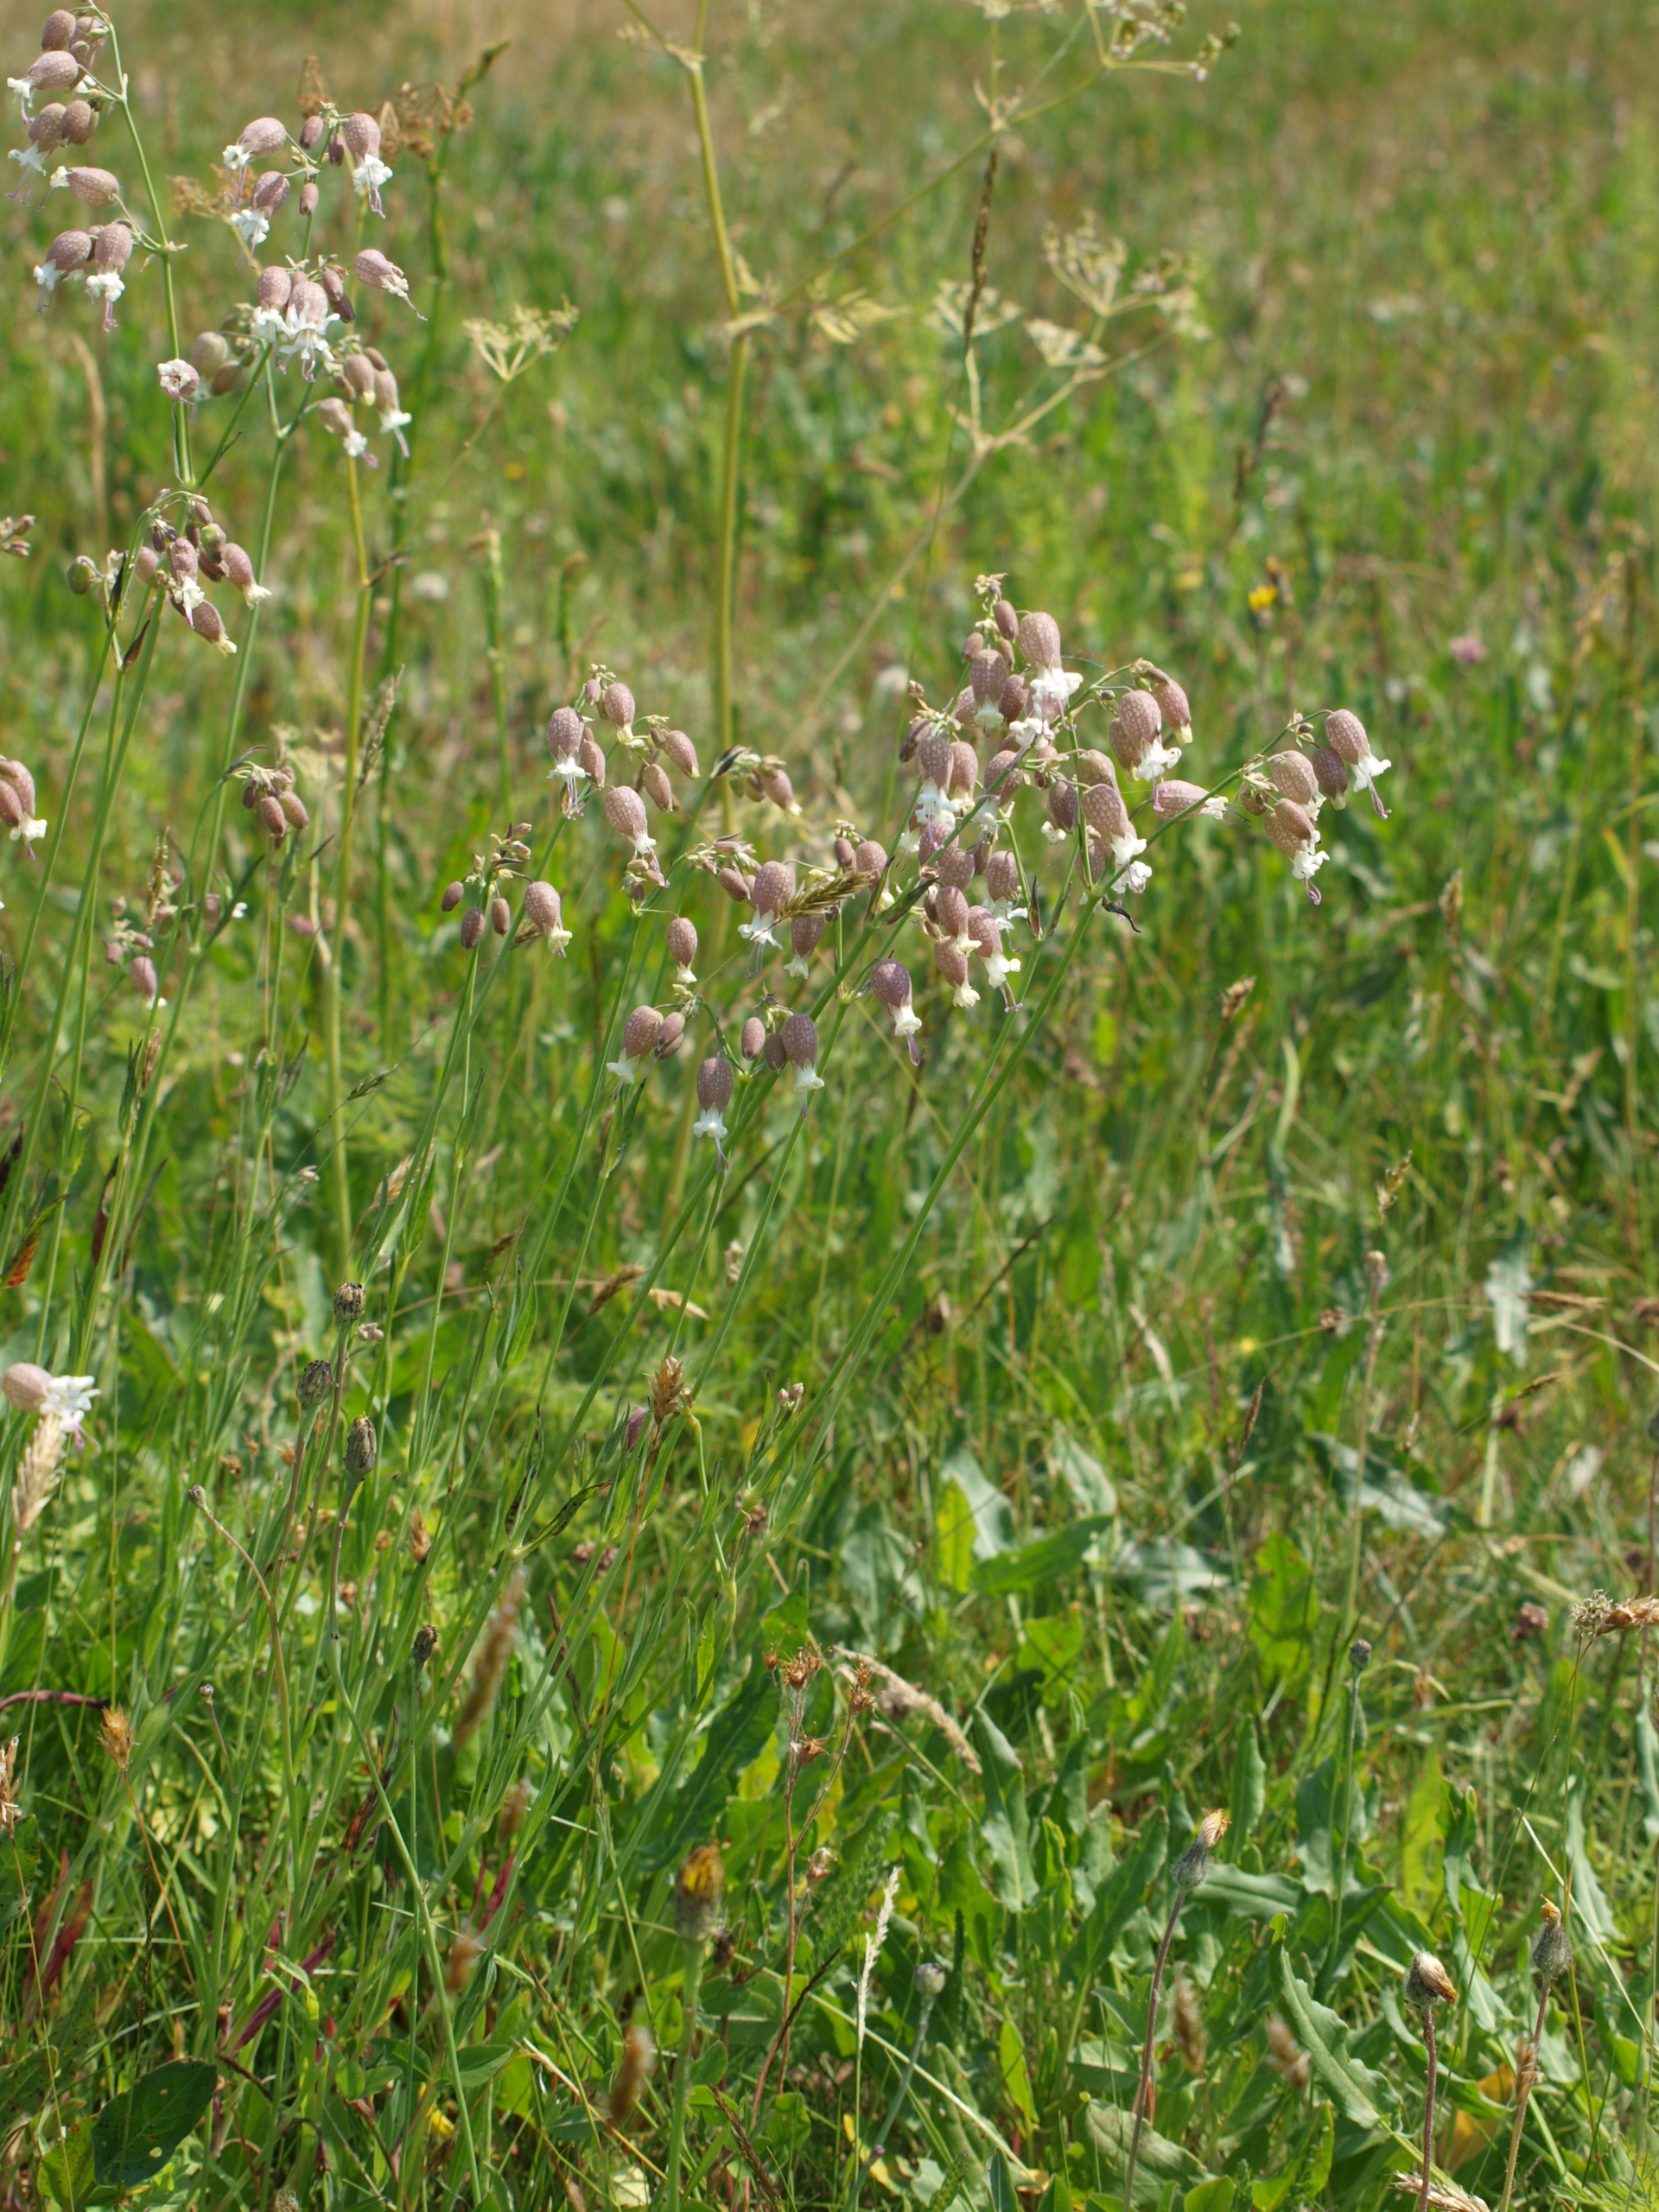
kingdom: Plantae
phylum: Tracheophyta
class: Magnoliopsida
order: Caryophyllales
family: Caryophyllaceae
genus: Silene
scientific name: Silene vulgaris
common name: Blæresmælde
